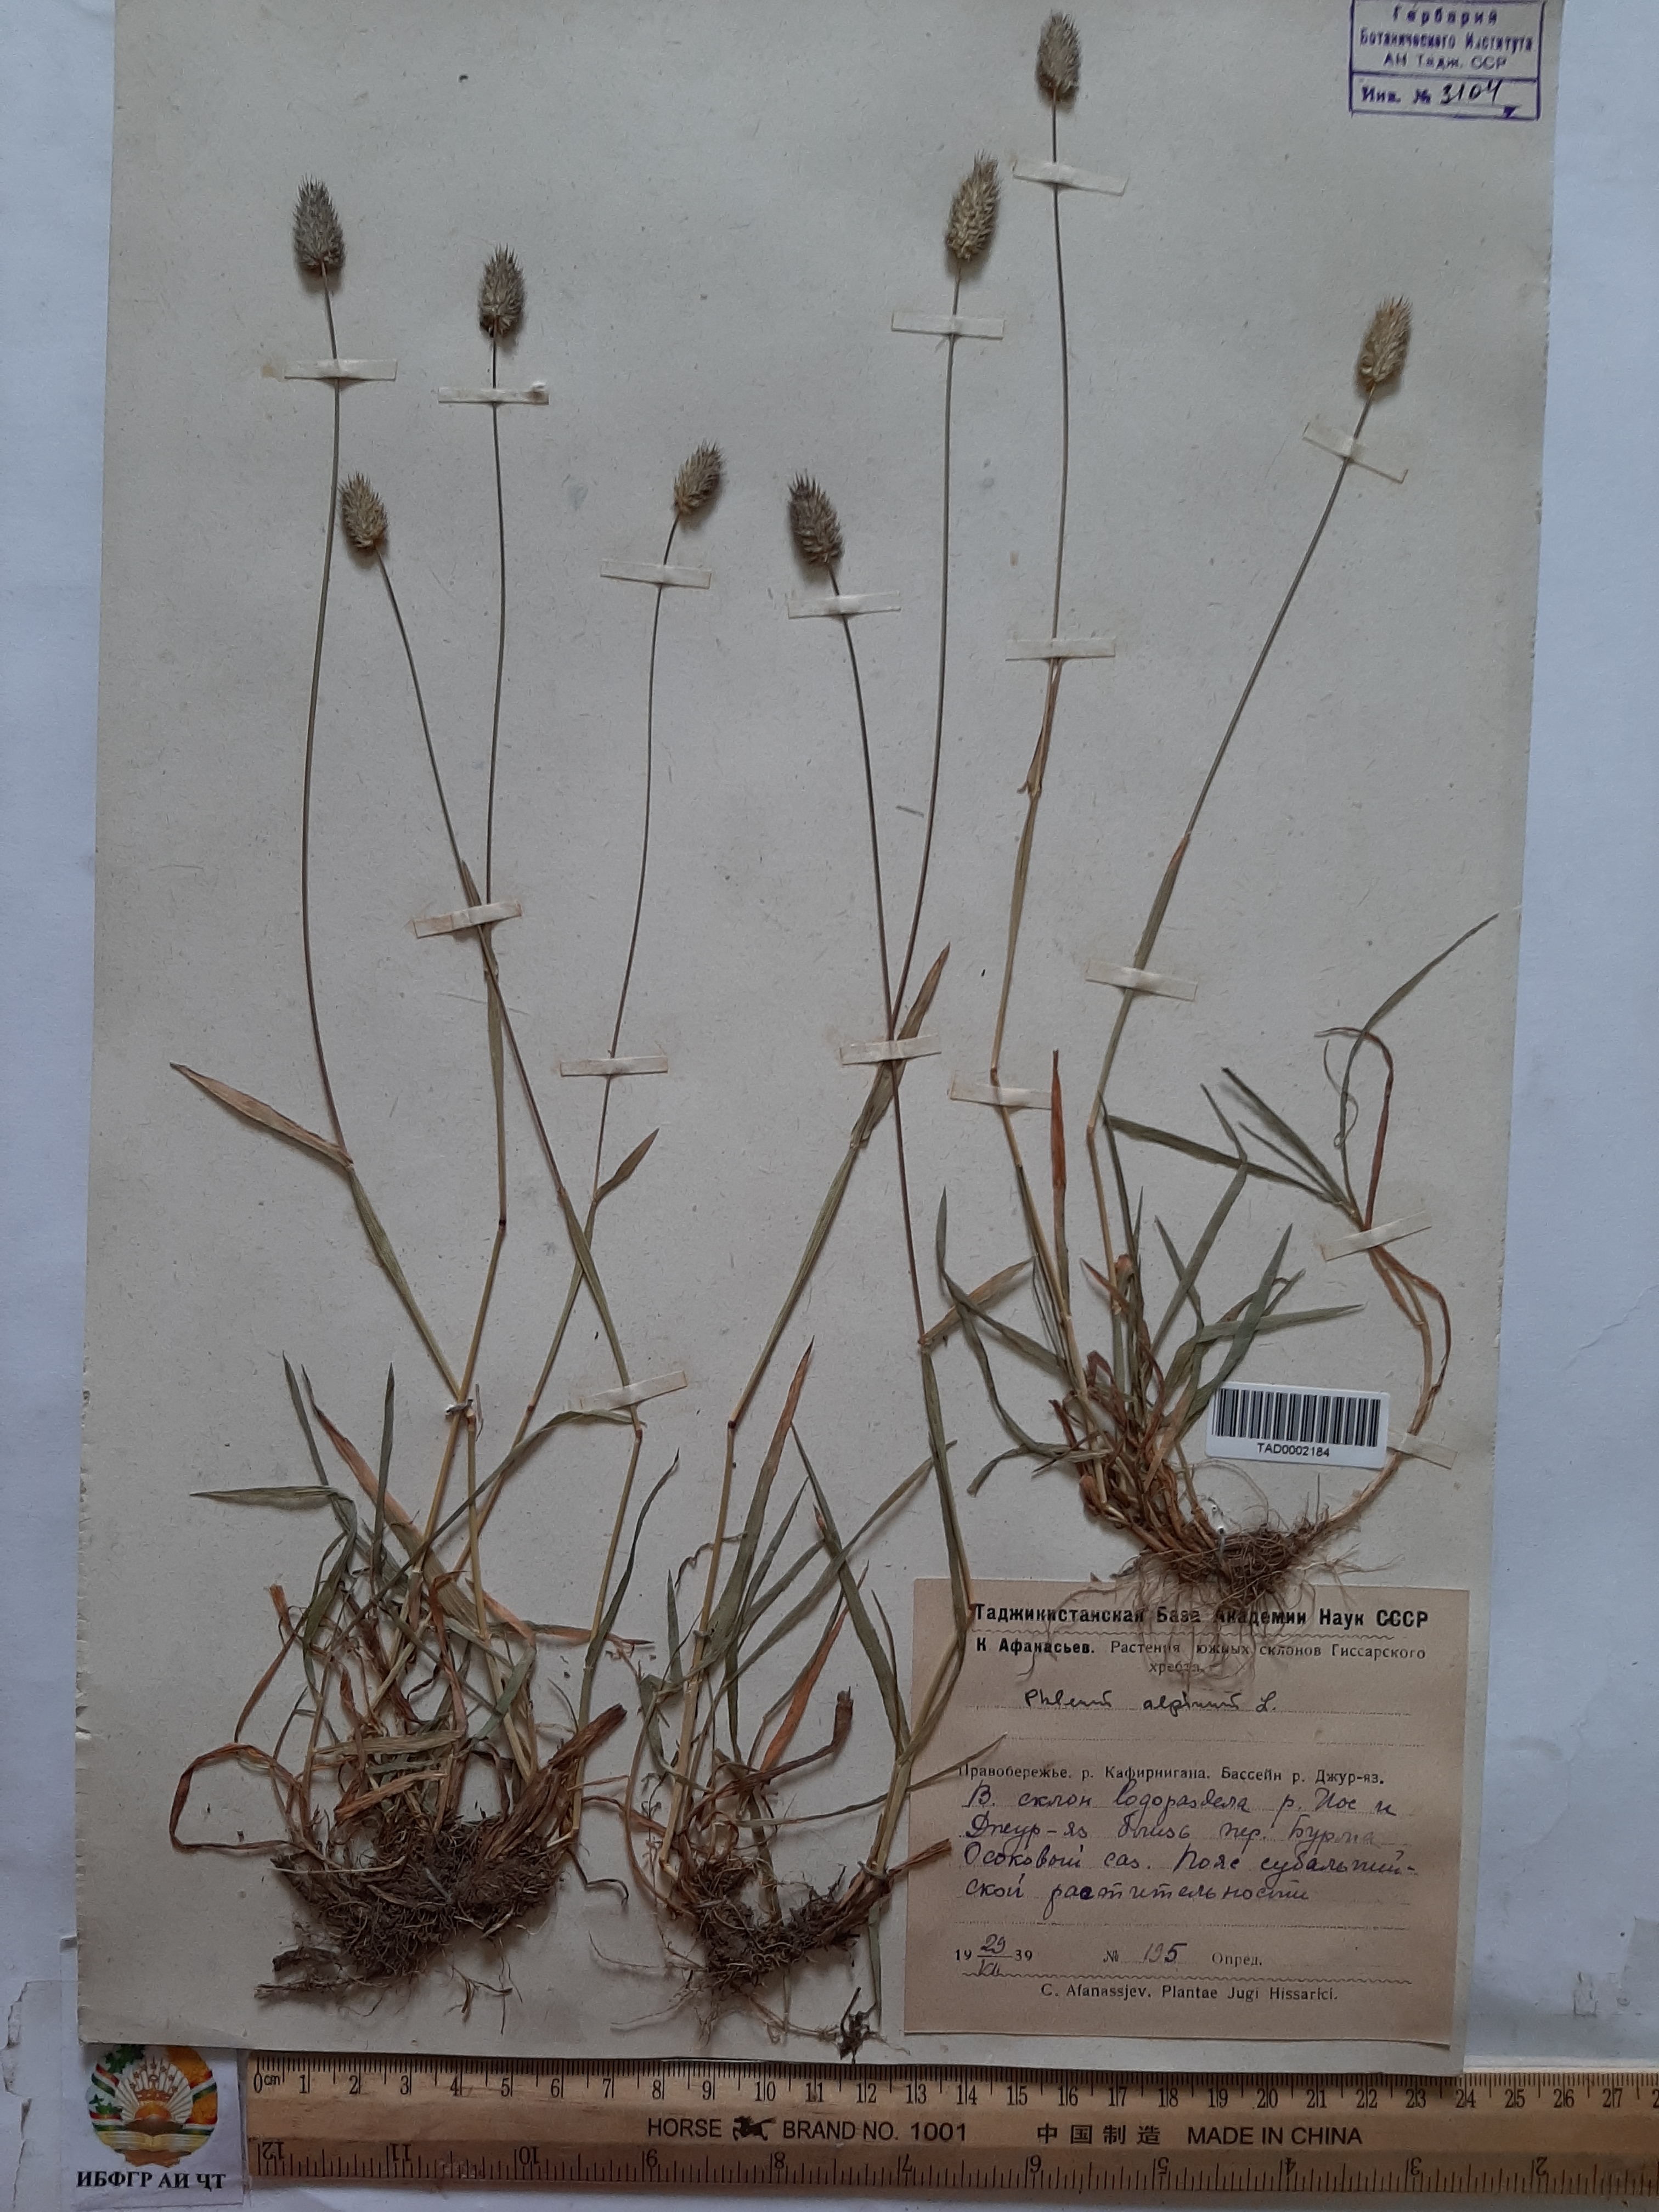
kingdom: Plantae
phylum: Tracheophyta
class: Liliopsida
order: Poales
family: Poaceae
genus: Phleum
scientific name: Phleum alpinum
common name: Alpine cat's-tail
